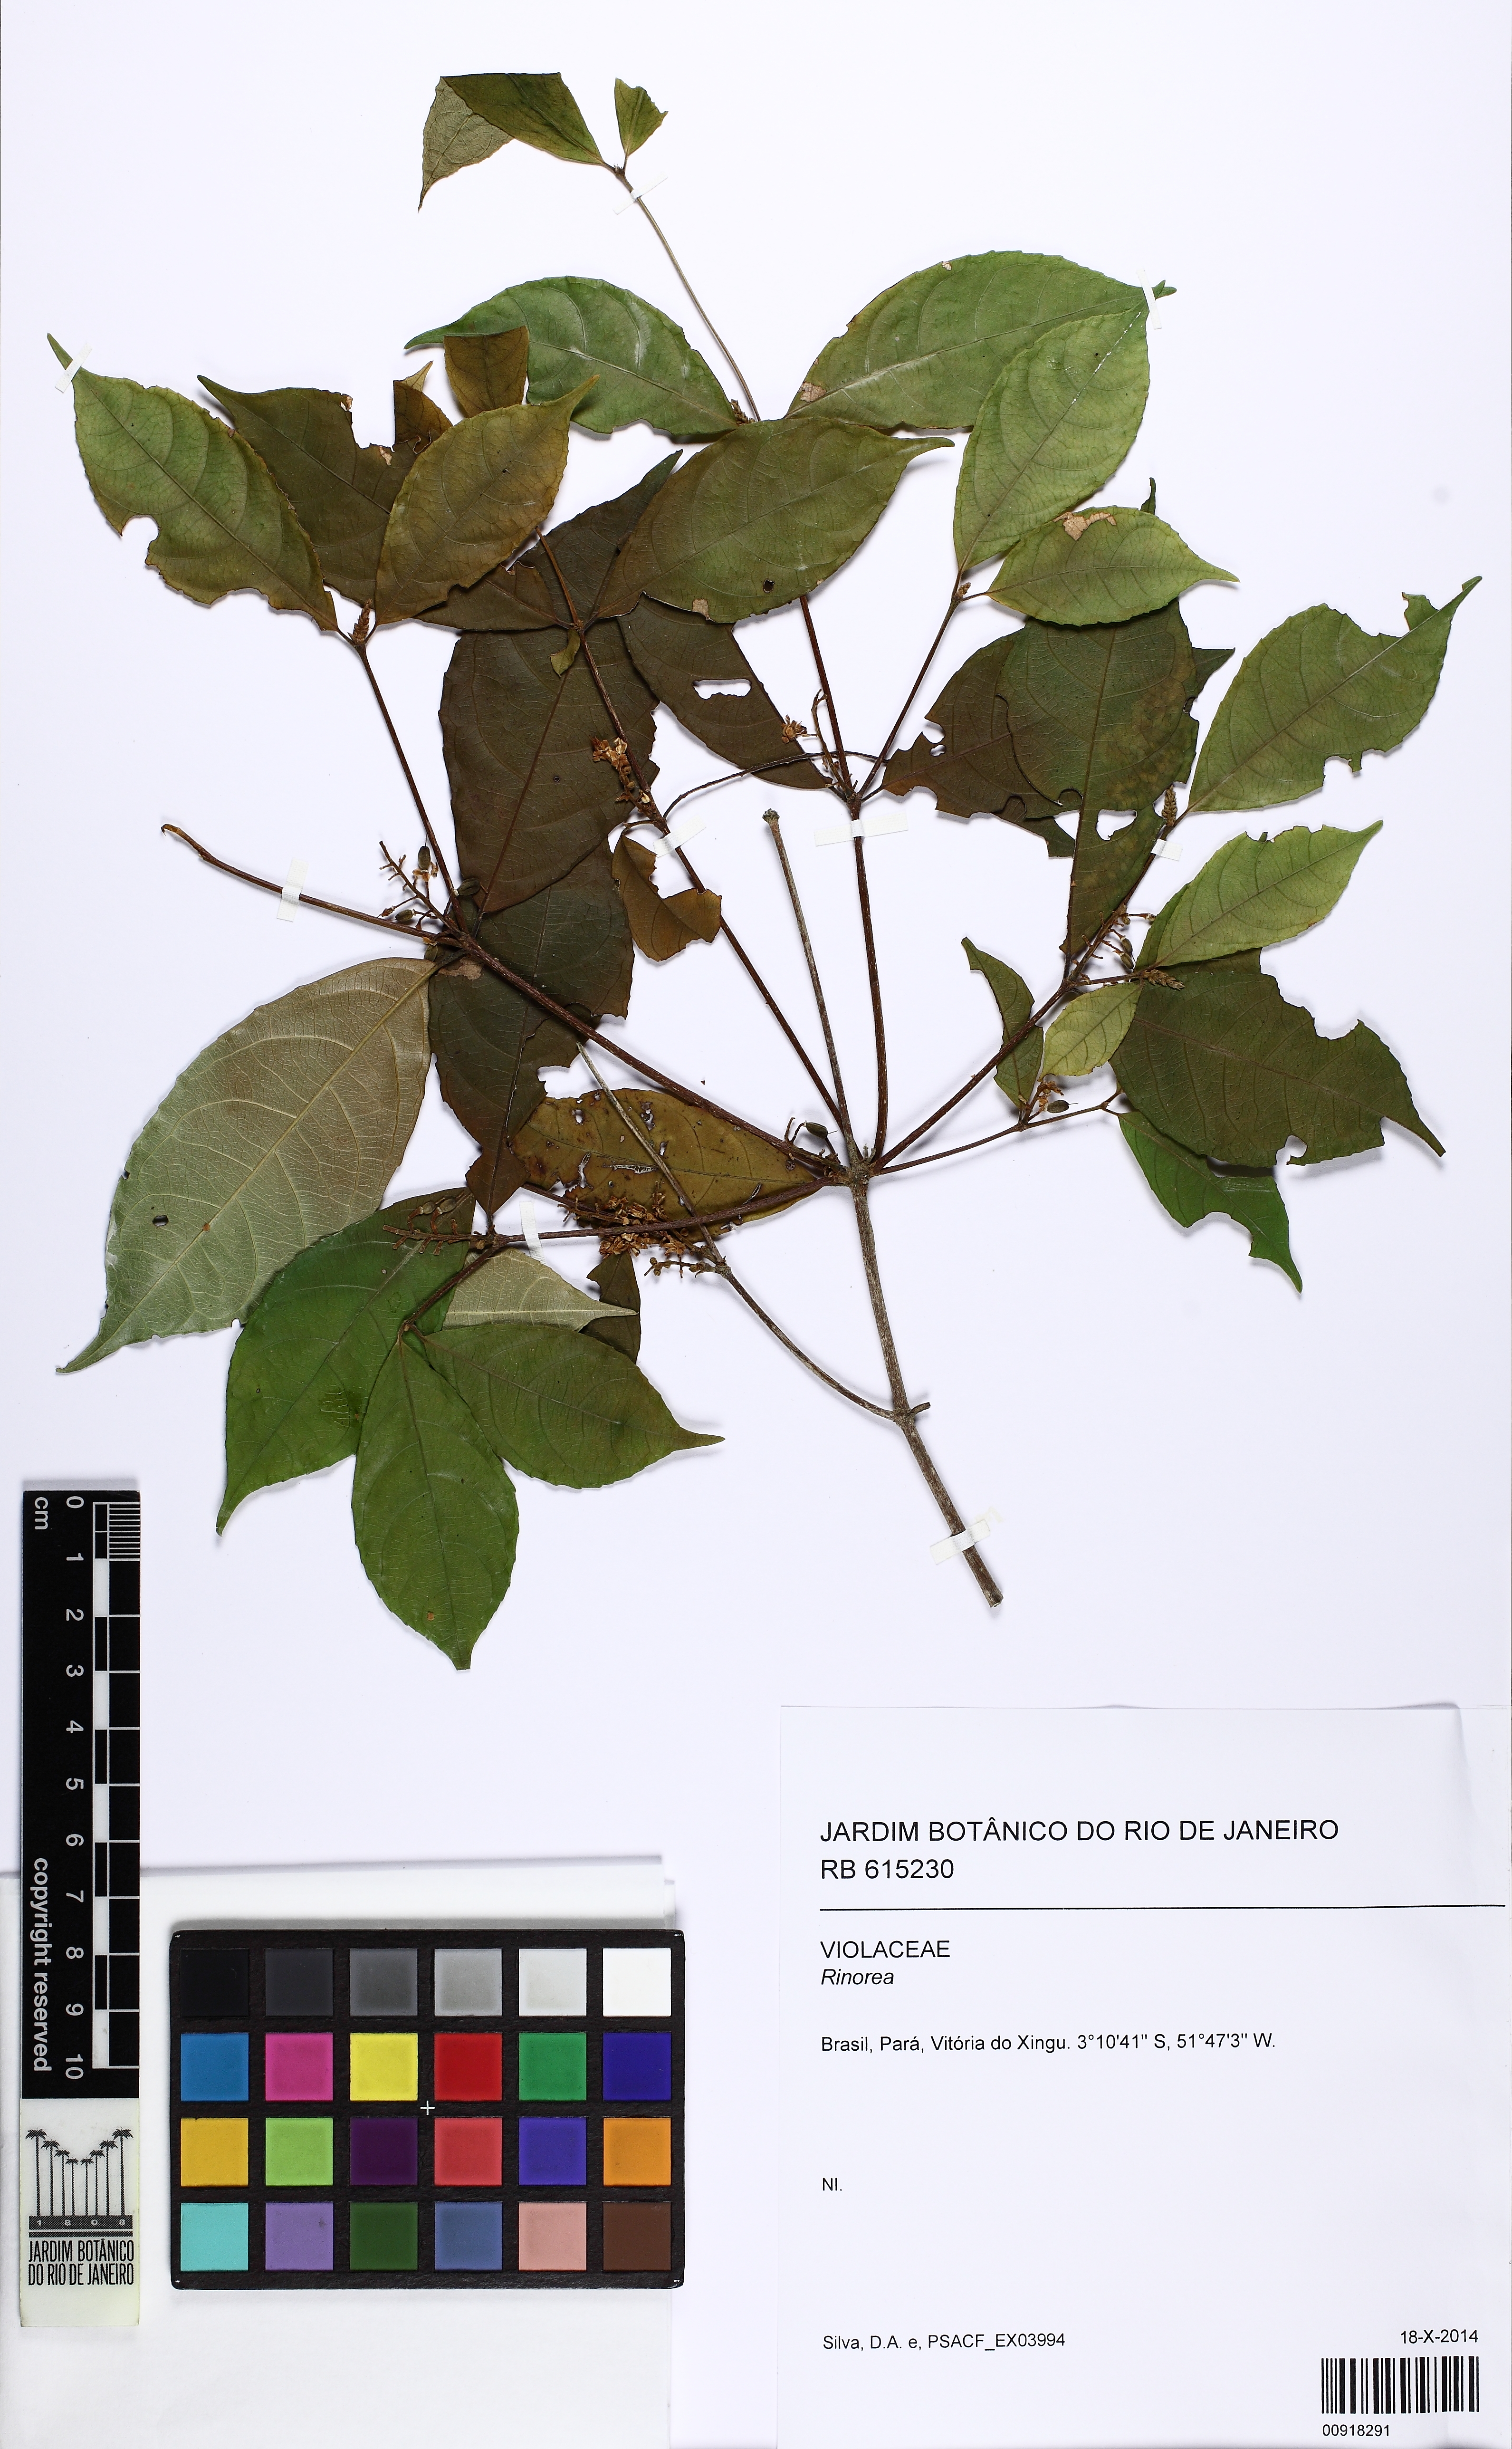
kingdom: Plantae
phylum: Tracheophyta
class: Magnoliopsida
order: Malpighiales
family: Violaceae
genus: Rinorea
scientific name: Rinorea
